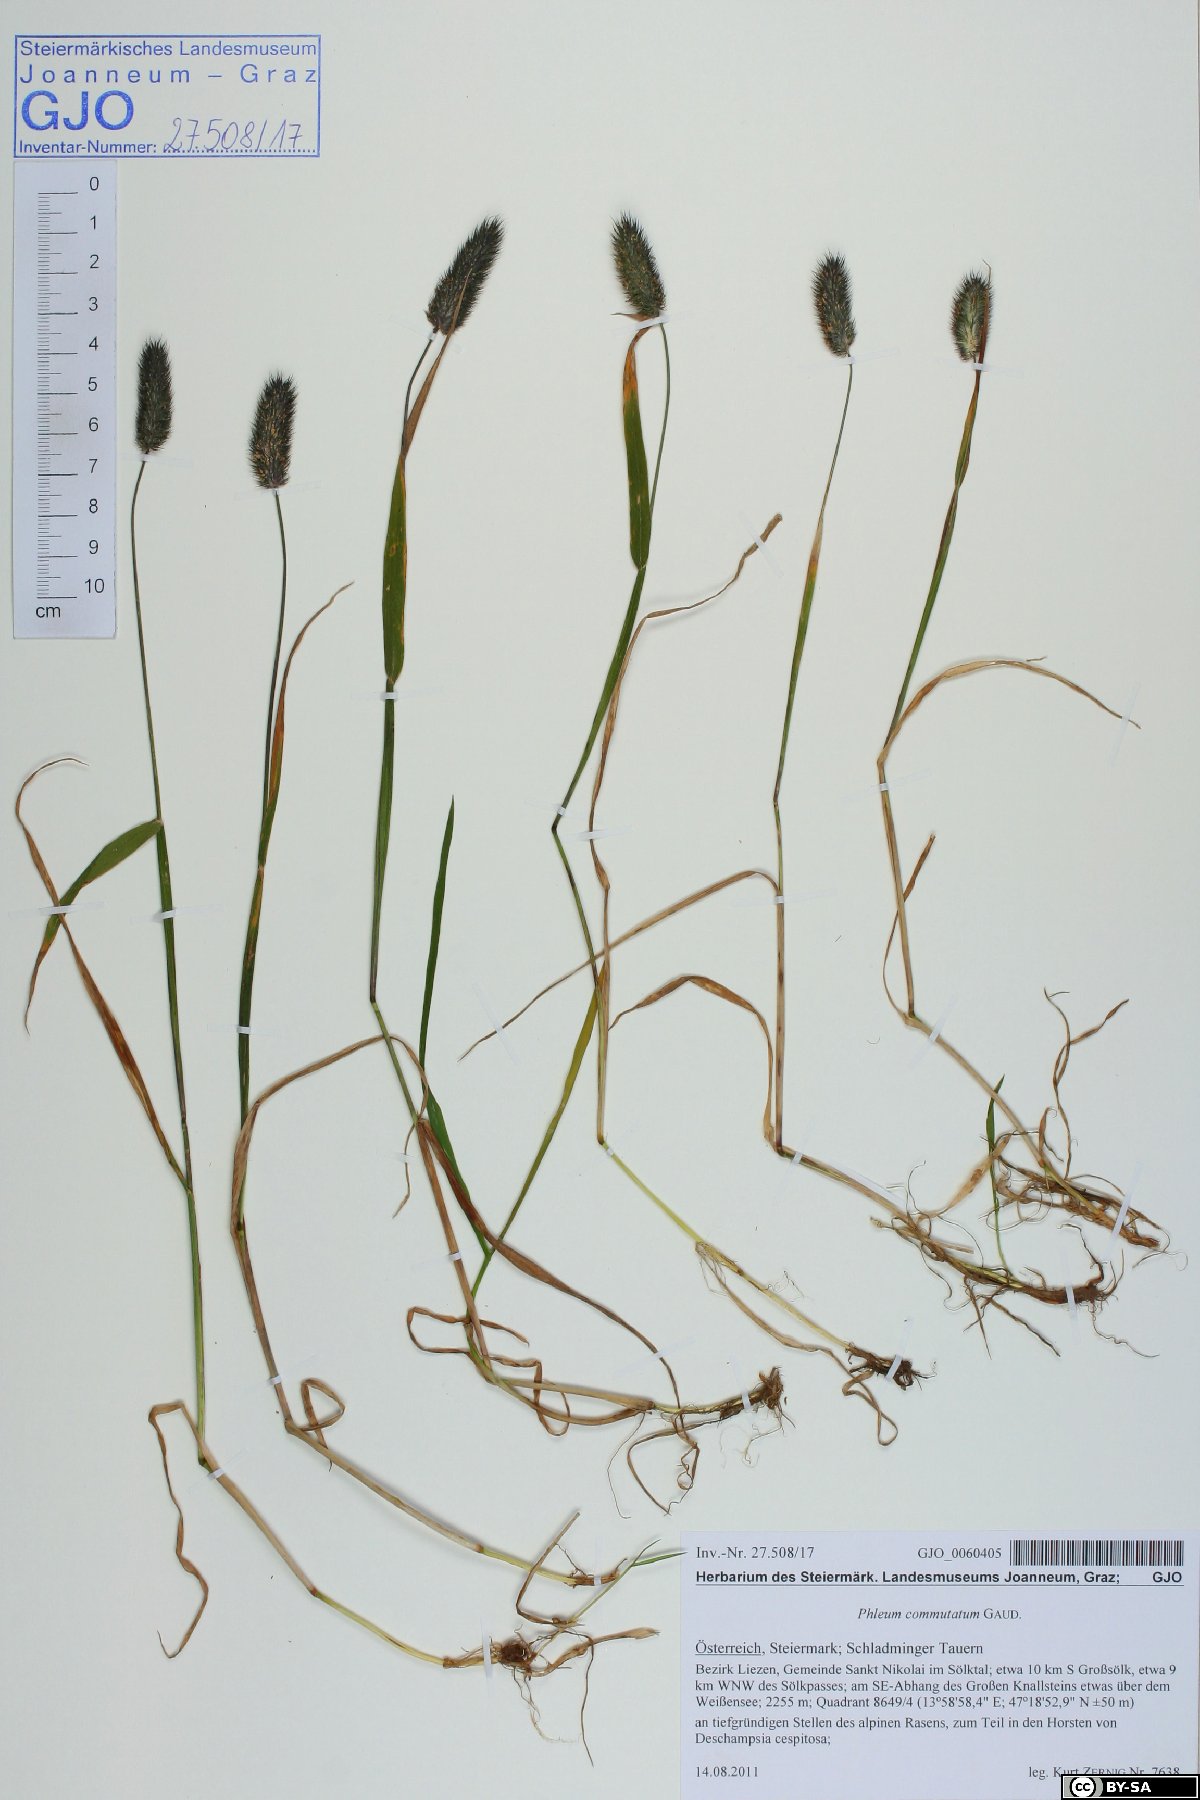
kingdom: Plantae
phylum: Tracheophyta
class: Liliopsida
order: Poales
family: Poaceae
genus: Phleum
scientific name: Phleum alpinum
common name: Alpine cat's-tail
